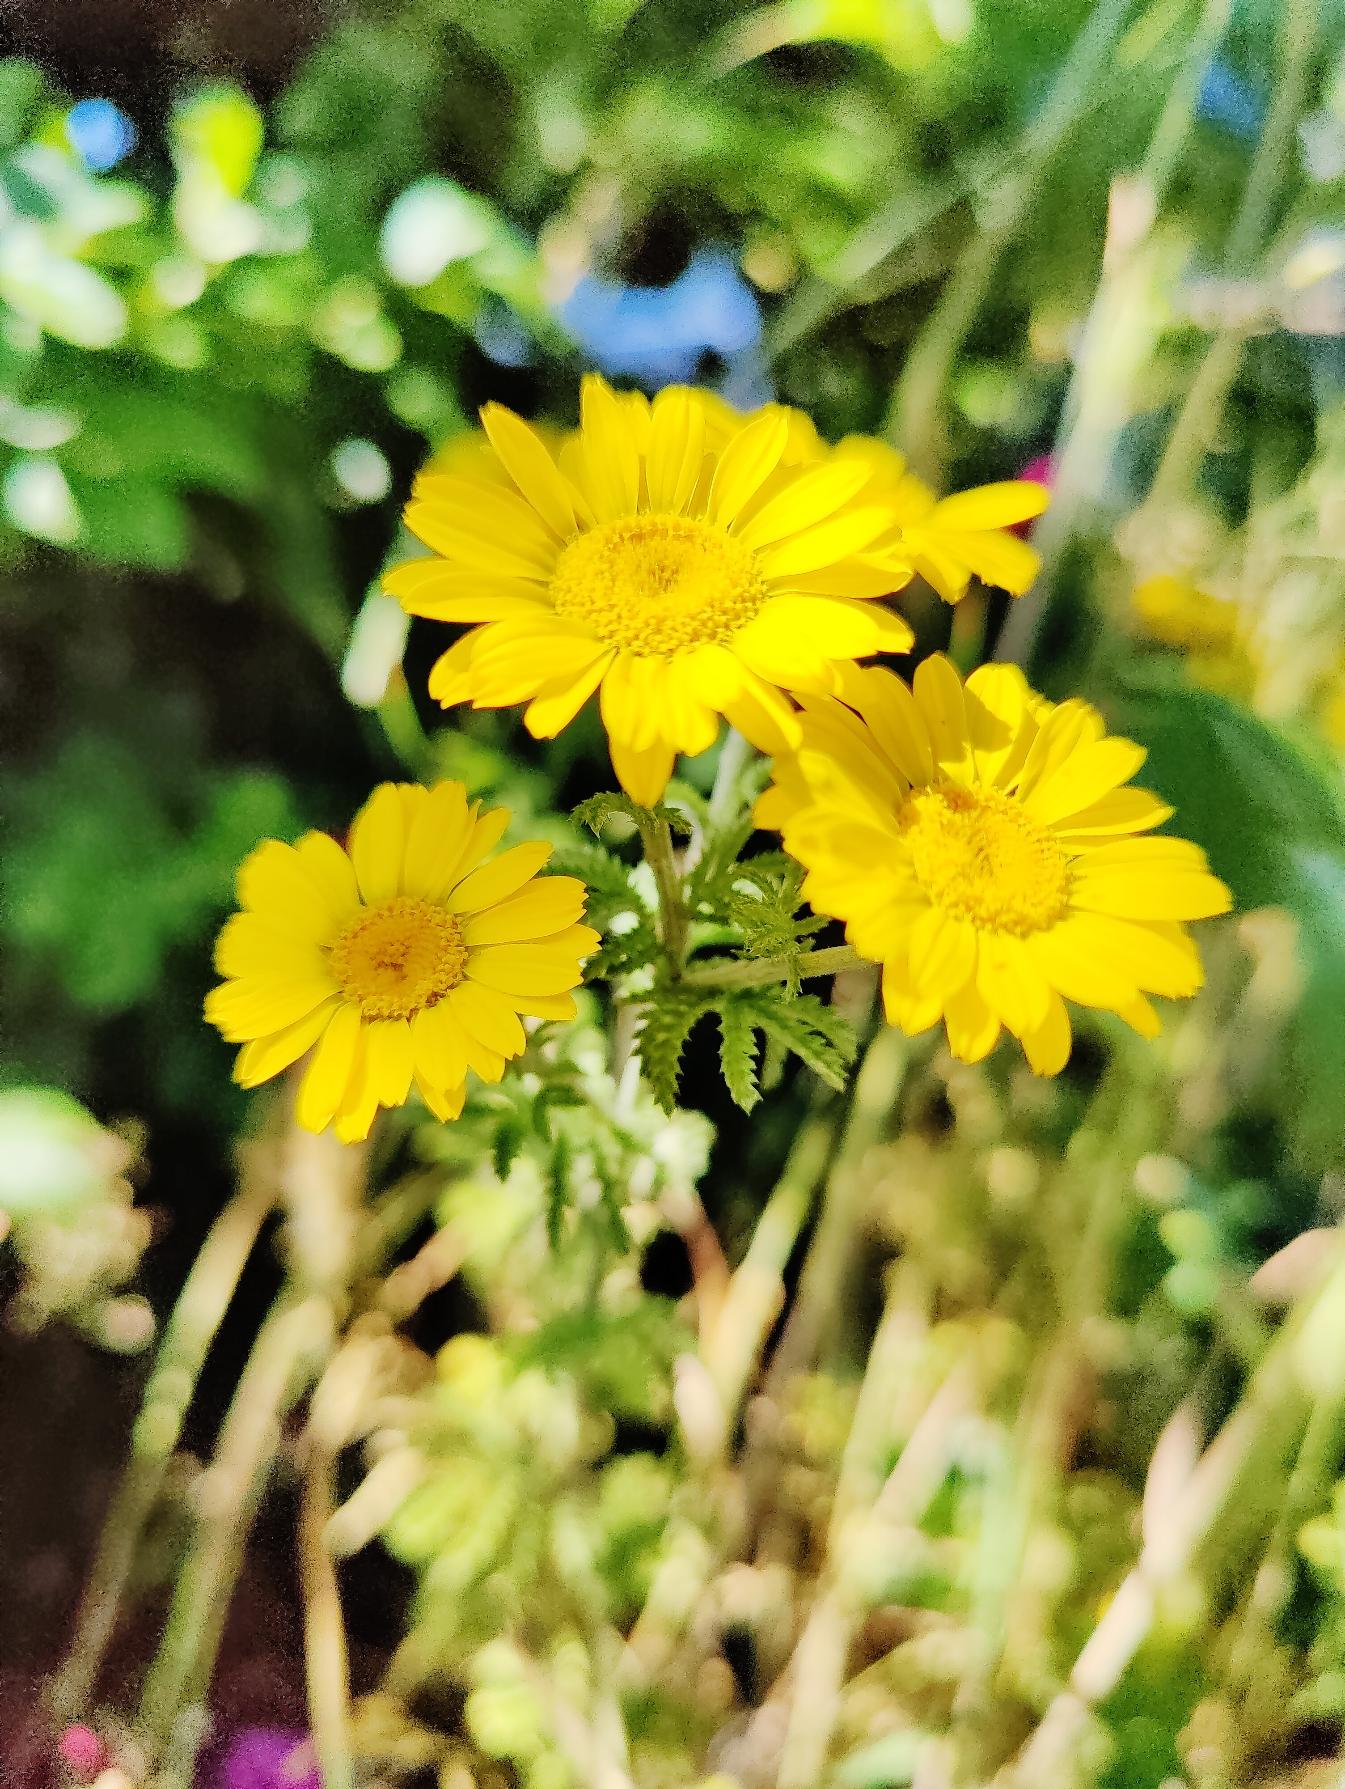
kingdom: Plantae
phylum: Tracheophyta
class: Magnoliopsida
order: Asterales
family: Asteraceae
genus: Cota
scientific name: Cota tinctoria
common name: Farve-gåseurt
